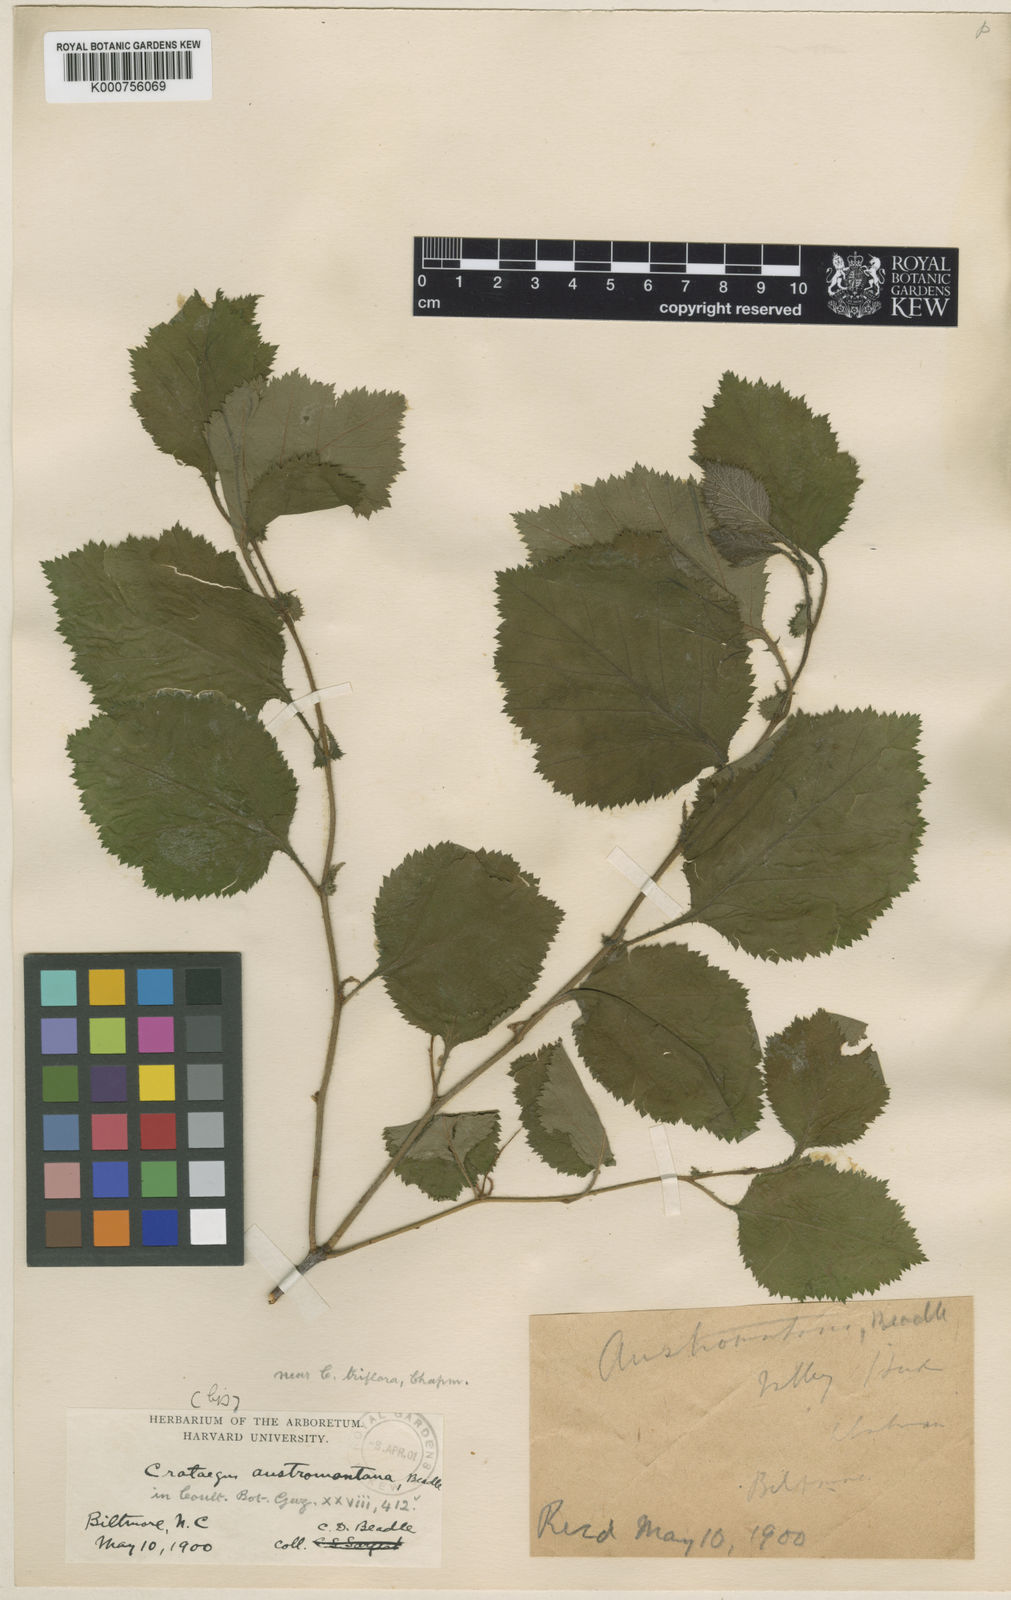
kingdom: Plantae
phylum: Tracheophyta
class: Magnoliopsida
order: Rosales
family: Rosaceae
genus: Crataegus
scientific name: Crataegus austromontana
